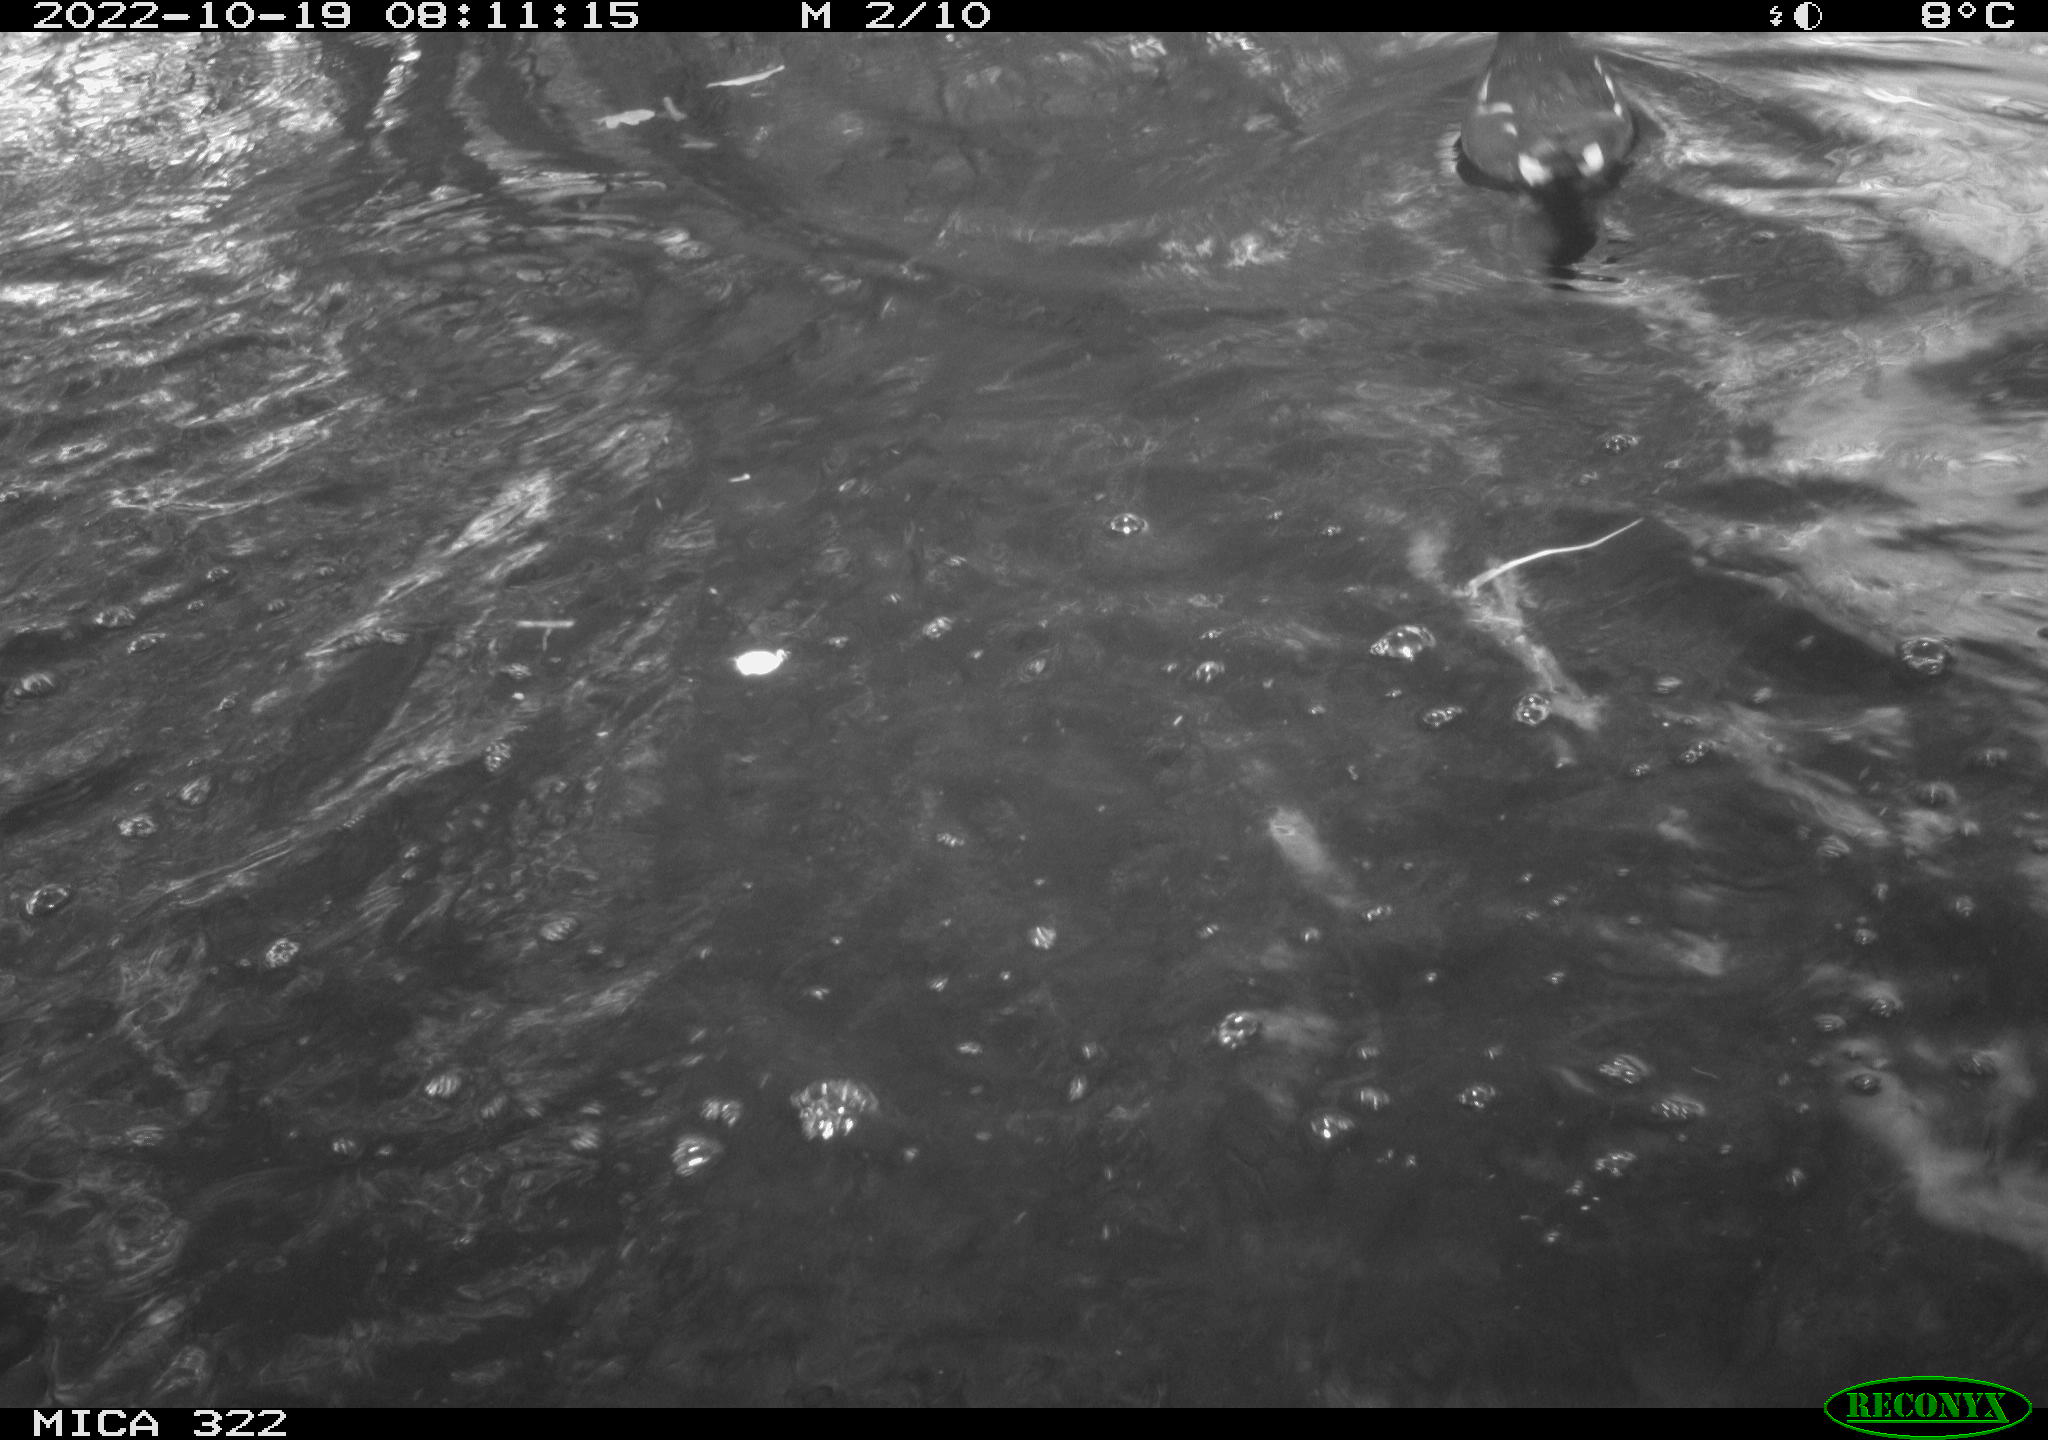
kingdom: Animalia
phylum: Chordata
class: Aves
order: Gruiformes
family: Rallidae
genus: Gallinula
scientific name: Gallinula chloropus
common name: Common moorhen
